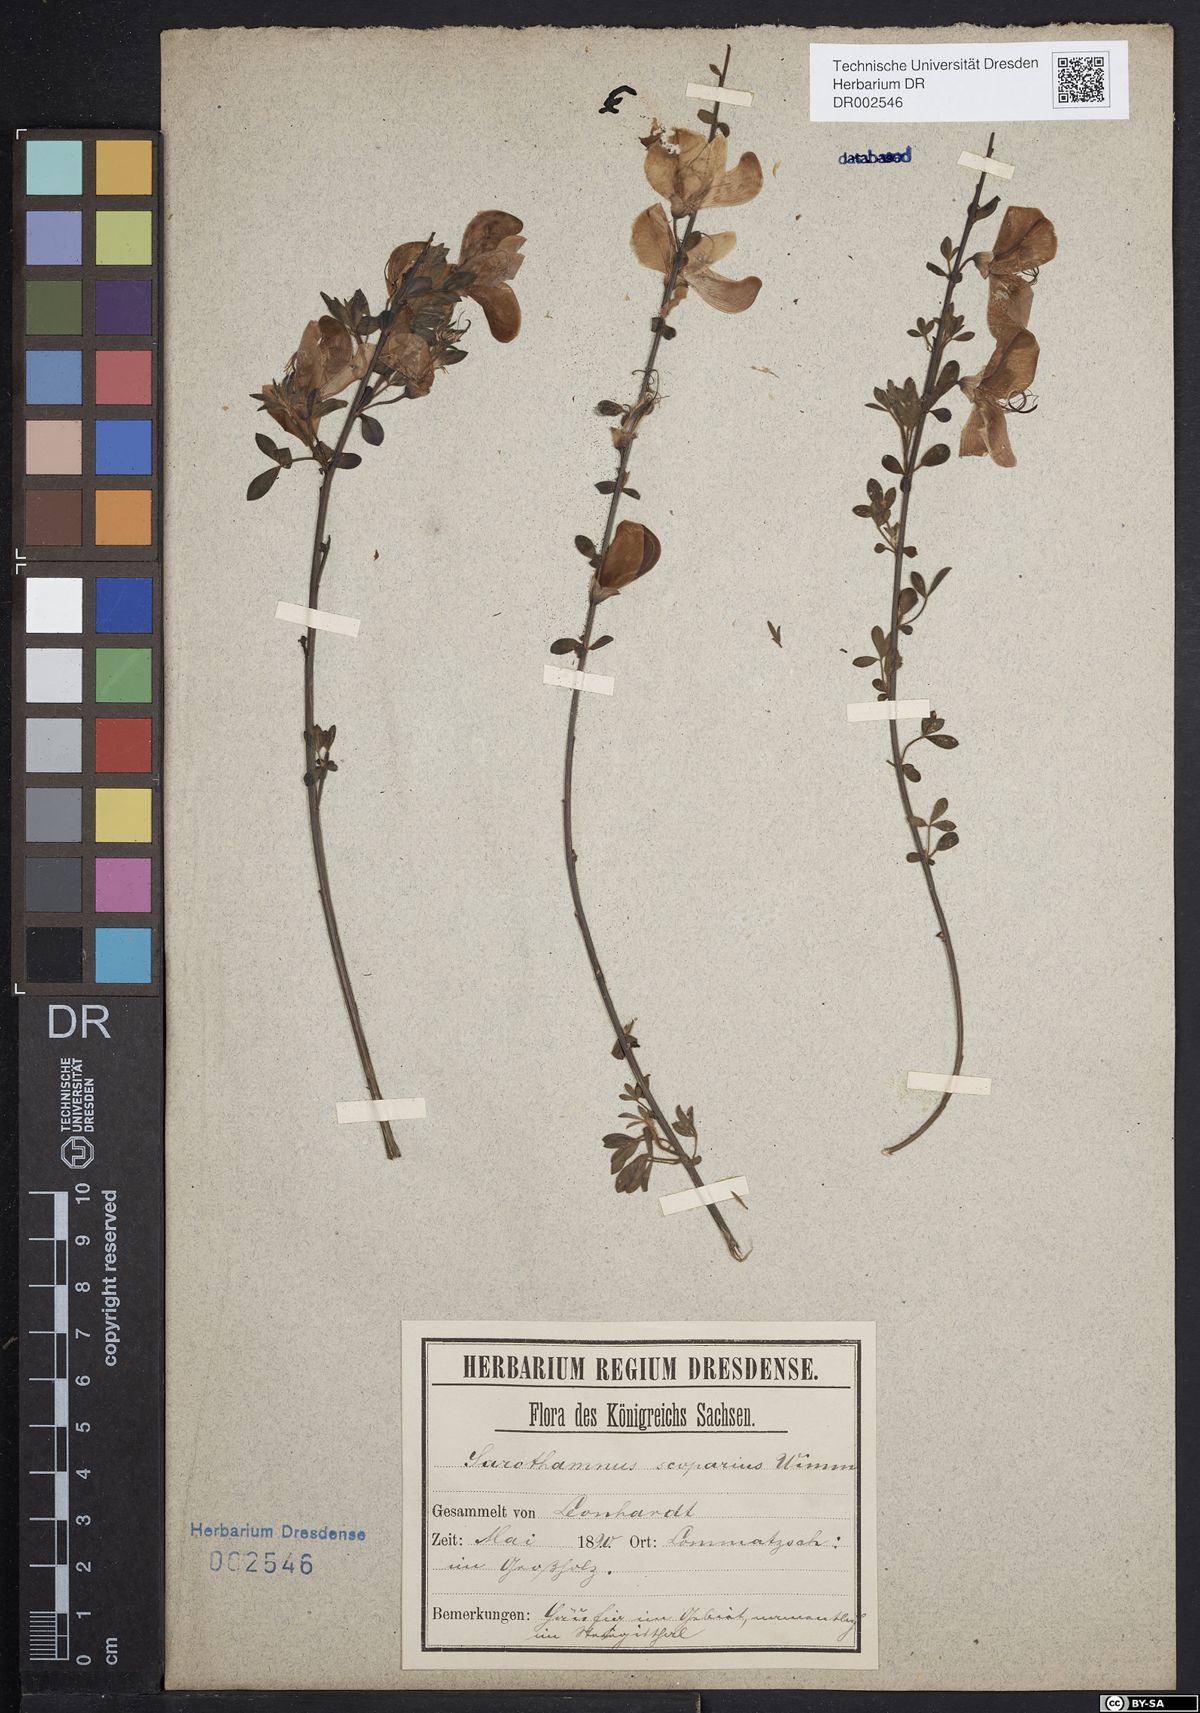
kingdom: Plantae
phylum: Tracheophyta
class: Magnoliopsida
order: Fabales
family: Fabaceae
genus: Cytisus
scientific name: Cytisus scoparius
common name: Scotch broom
